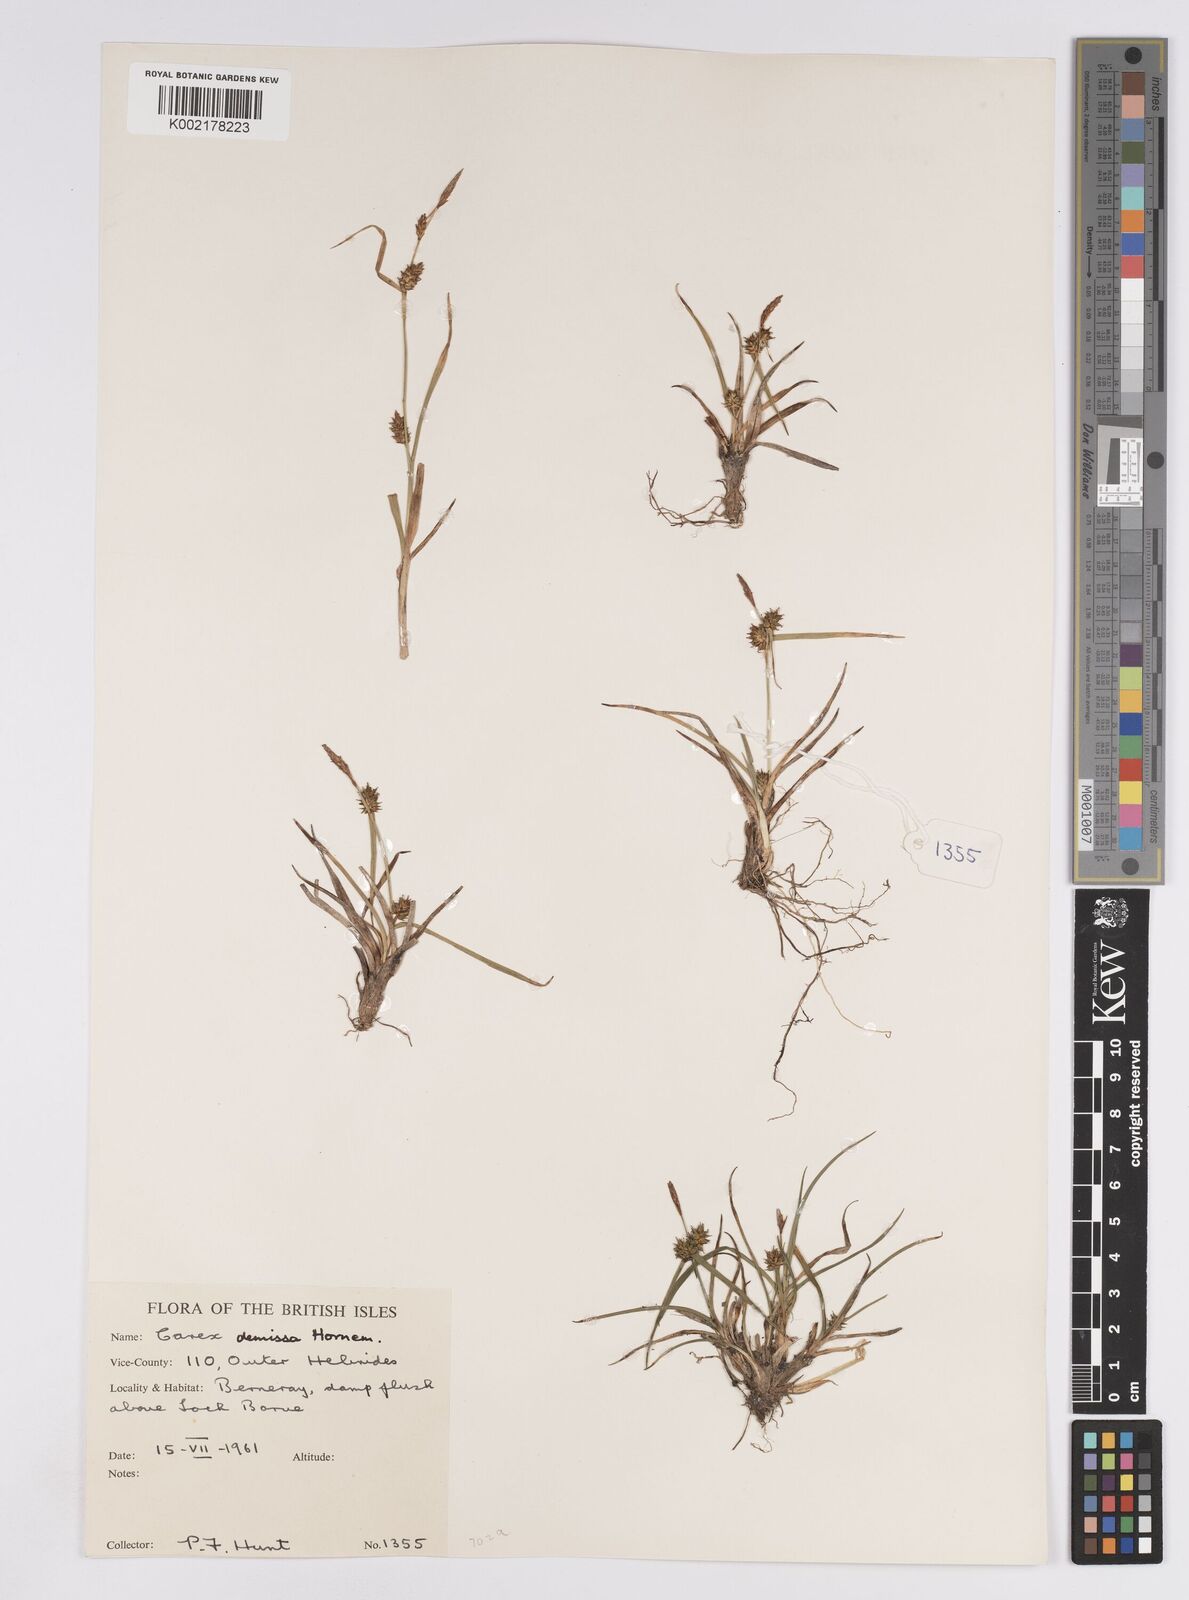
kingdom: Plantae
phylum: Tracheophyta
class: Liliopsida
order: Poales
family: Cyperaceae
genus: Carex
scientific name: Carex demissa
